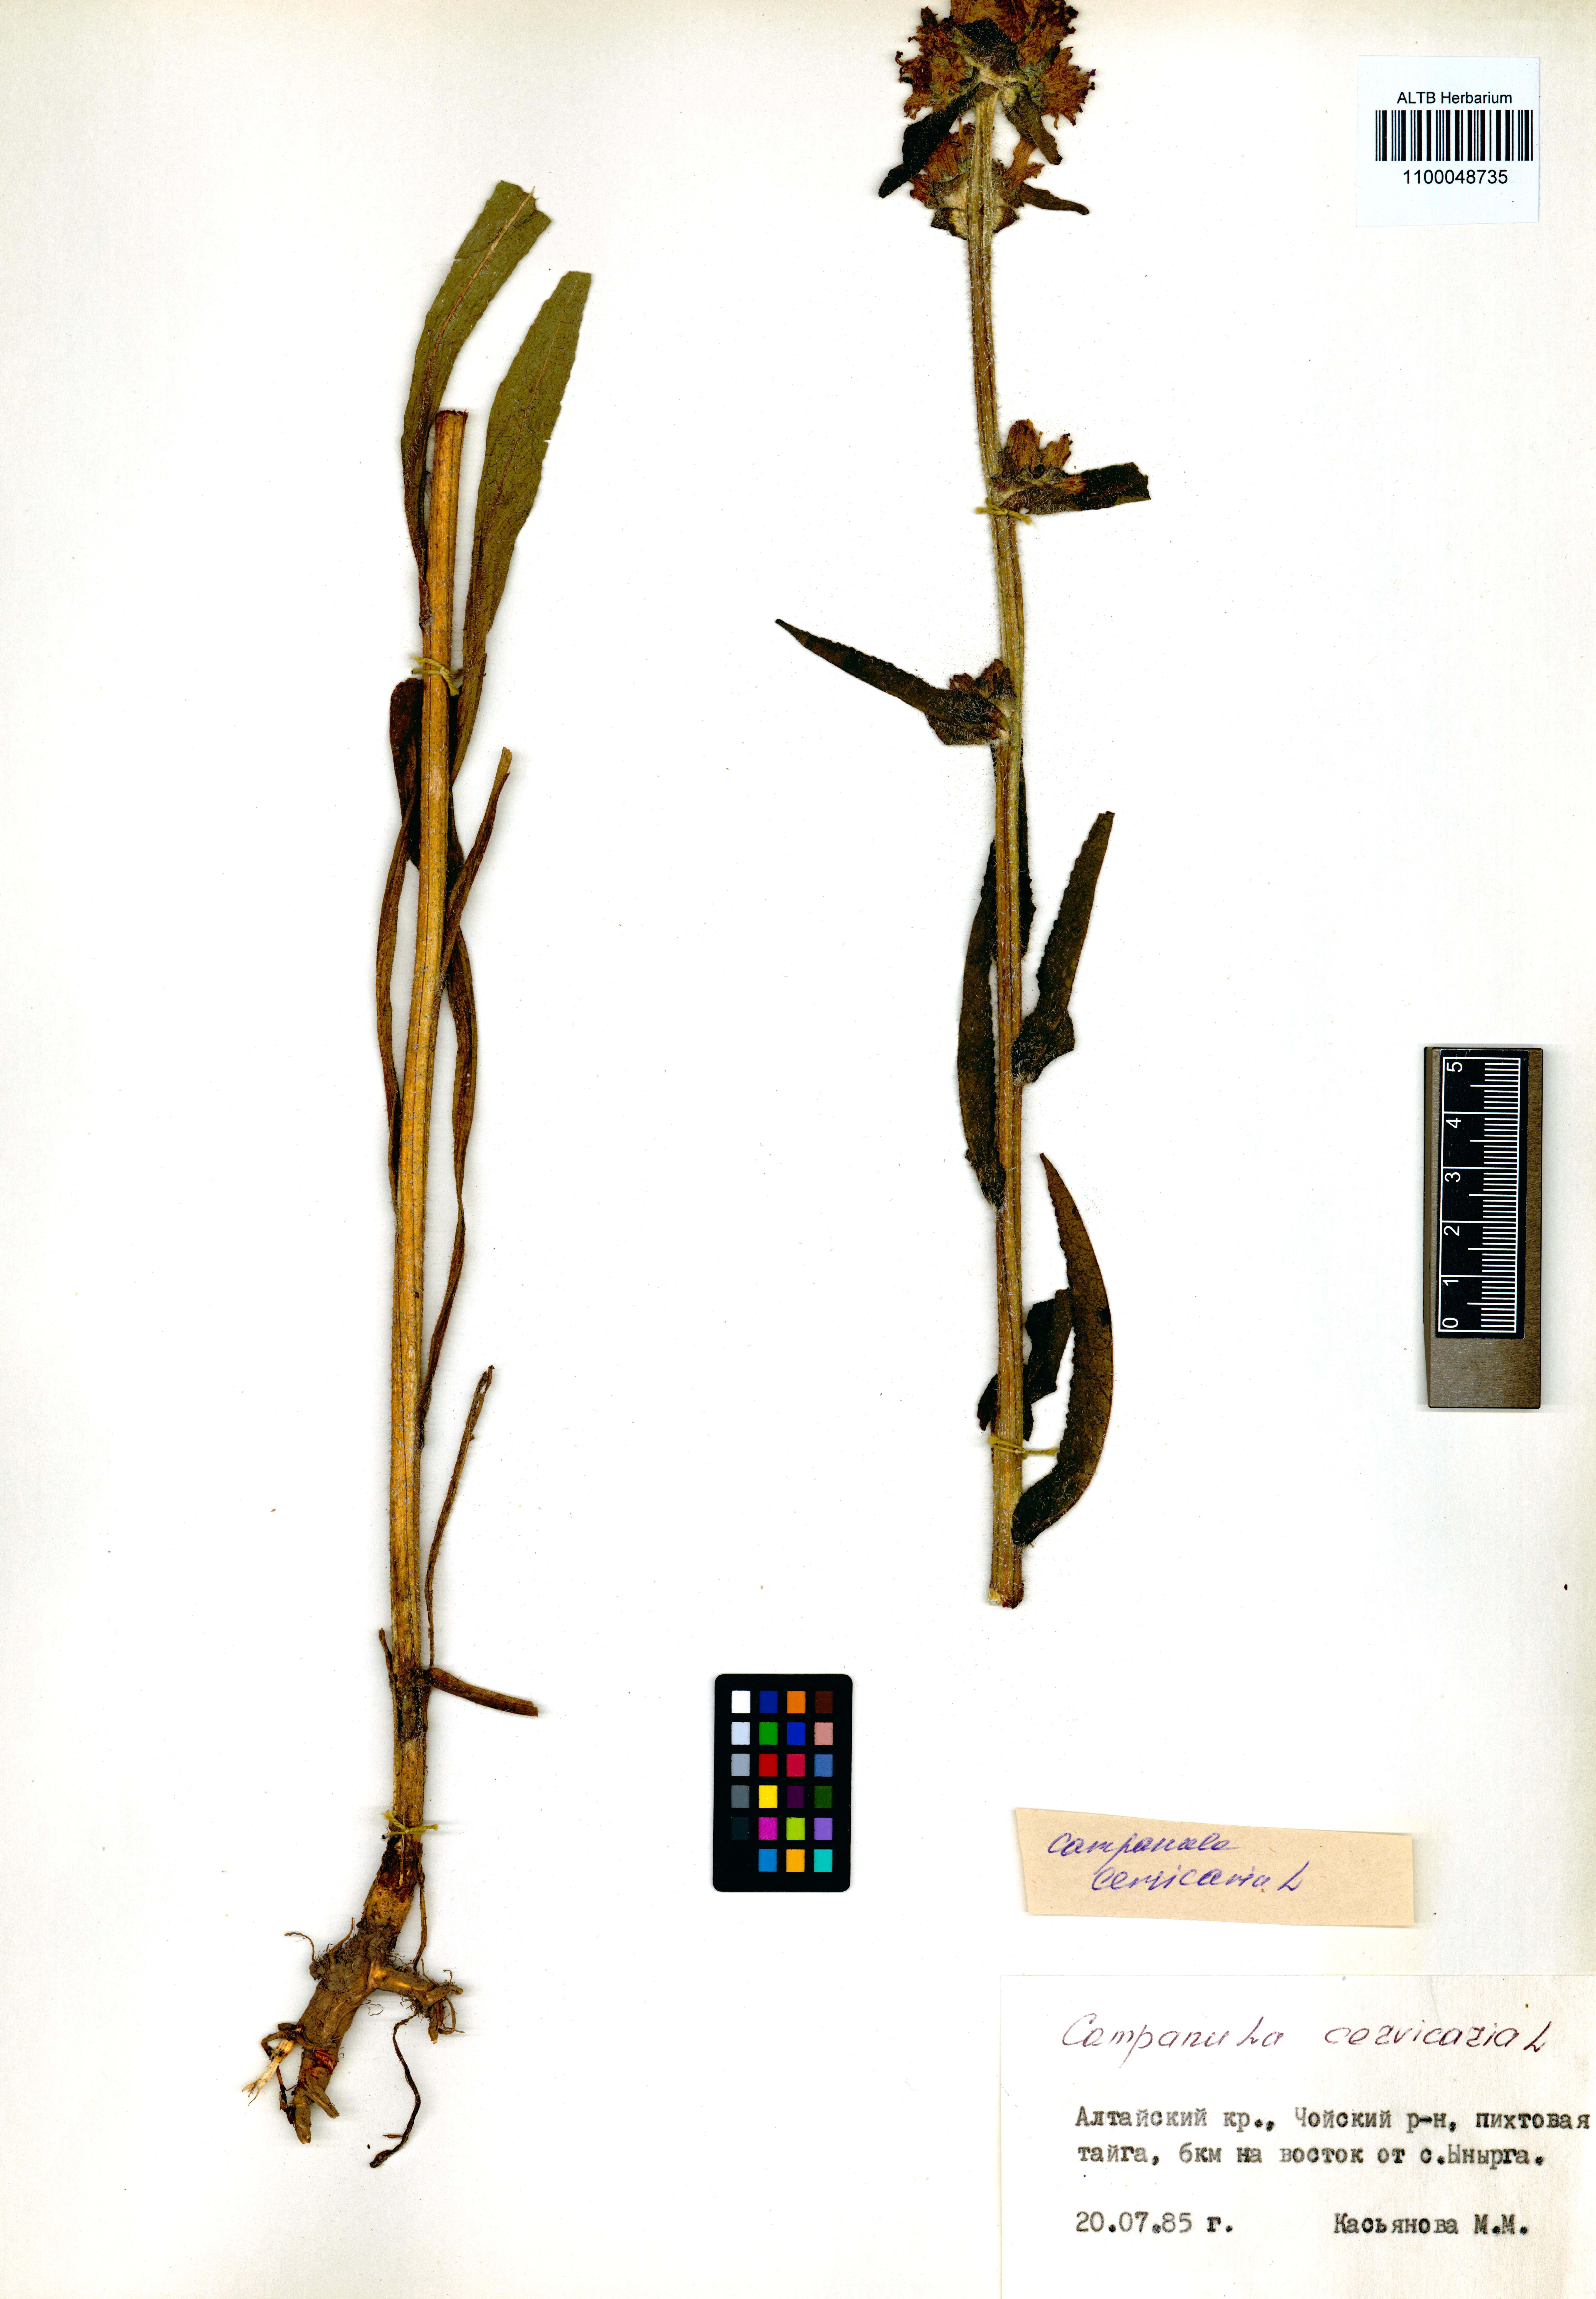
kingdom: Plantae
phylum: Tracheophyta
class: Magnoliopsida
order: Asterales
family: Campanulaceae
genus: Campanula
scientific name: Campanula cervicaria
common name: Bristly bellflower
